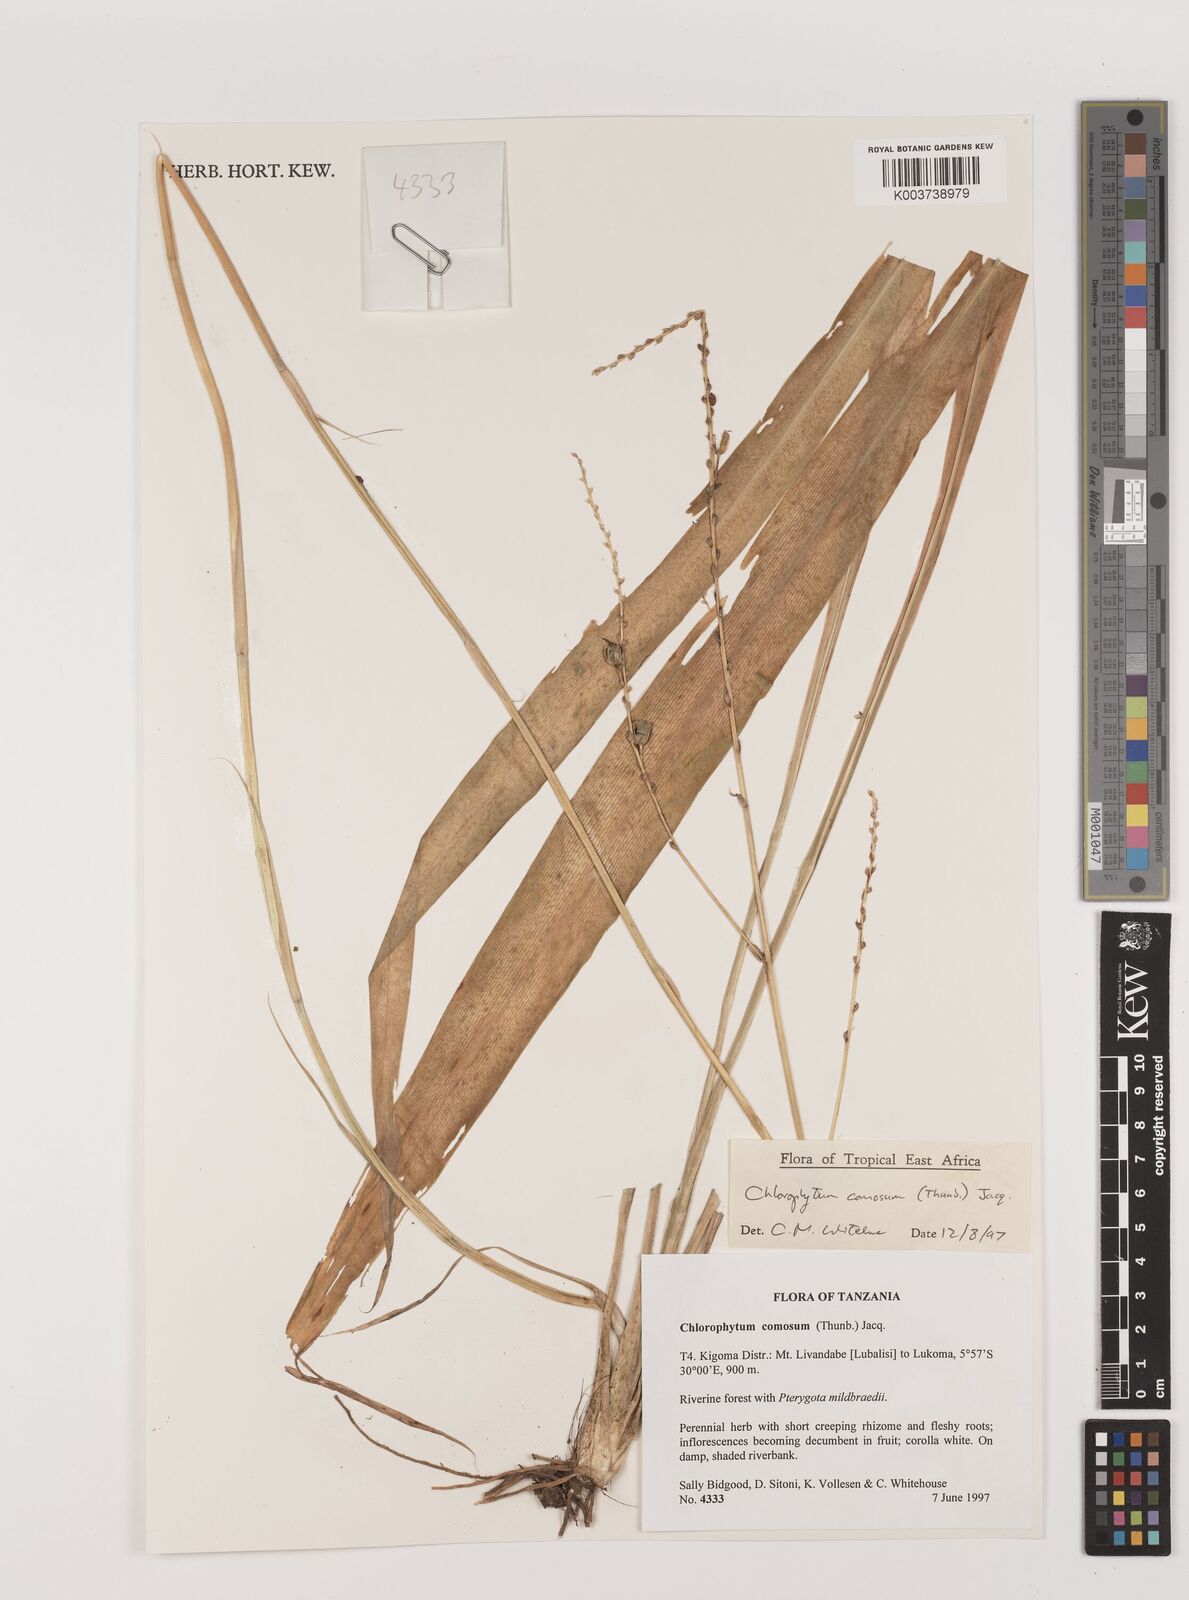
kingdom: Plantae
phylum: Tracheophyta
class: Liliopsida
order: Asparagales
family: Asparagaceae
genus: Chlorophytum
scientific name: Chlorophytum comosum
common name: Spider plant
